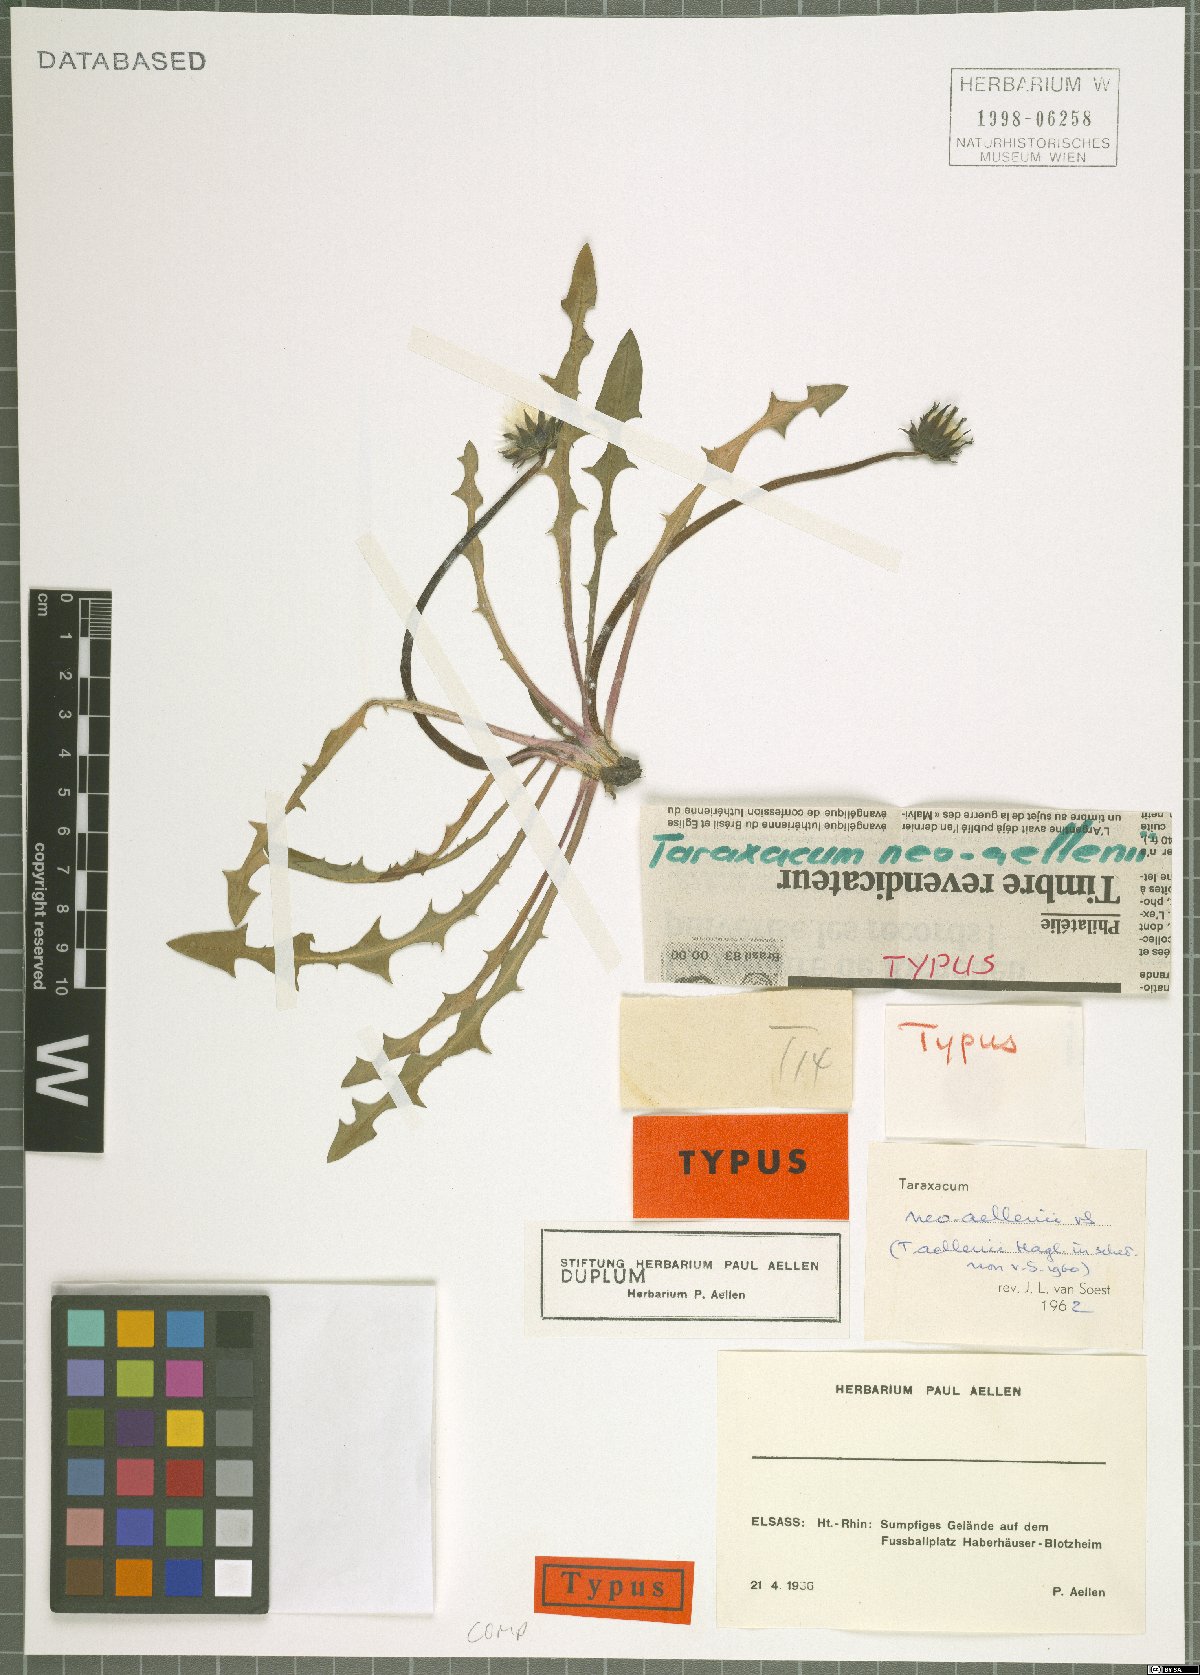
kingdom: Plantae
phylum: Tracheophyta
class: Magnoliopsida
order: Asterales
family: Asteraceae
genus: Taraxacum
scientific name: Taraxacum neoaellenii
